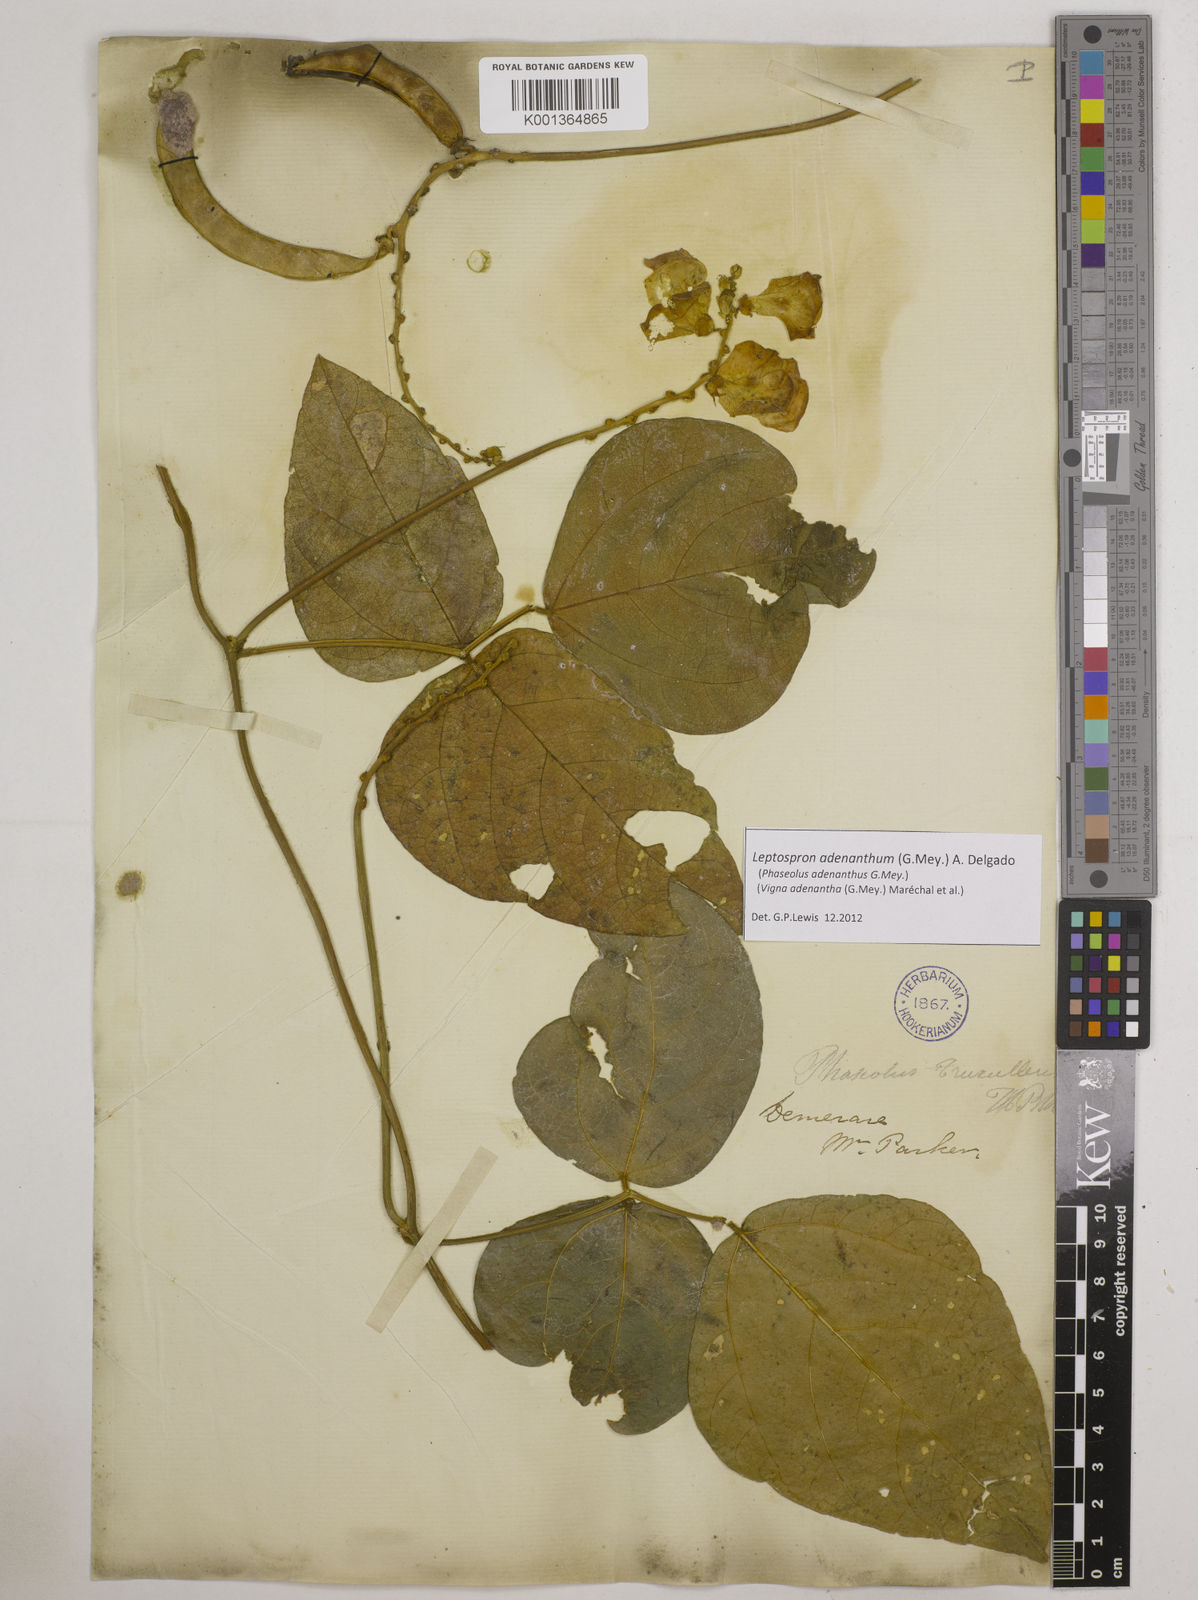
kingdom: Plantae
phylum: Tracheophyta
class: Magnoliopsida
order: Fabales
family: Fabaceae
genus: Leptospron
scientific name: Leptospron adenanthum
